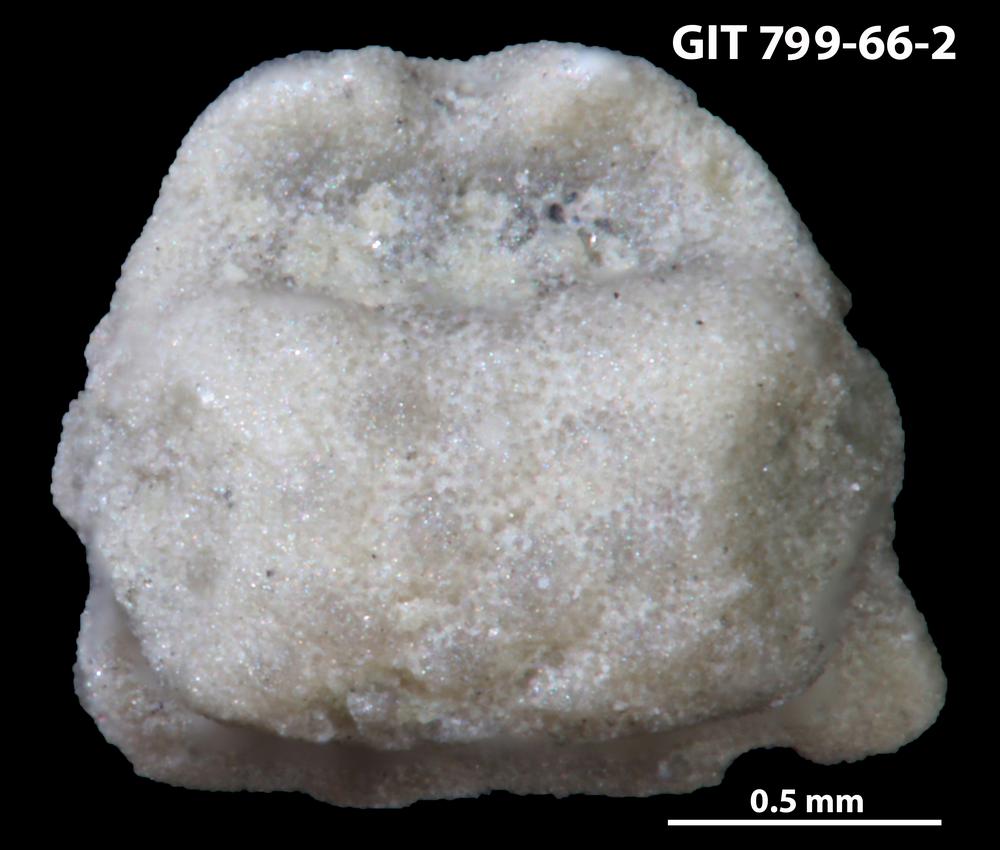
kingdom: Animalia
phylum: Echinodermata
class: Crinoidea
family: Cyclocystoididae
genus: Cyclocystoides
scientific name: Cyclocystoides
